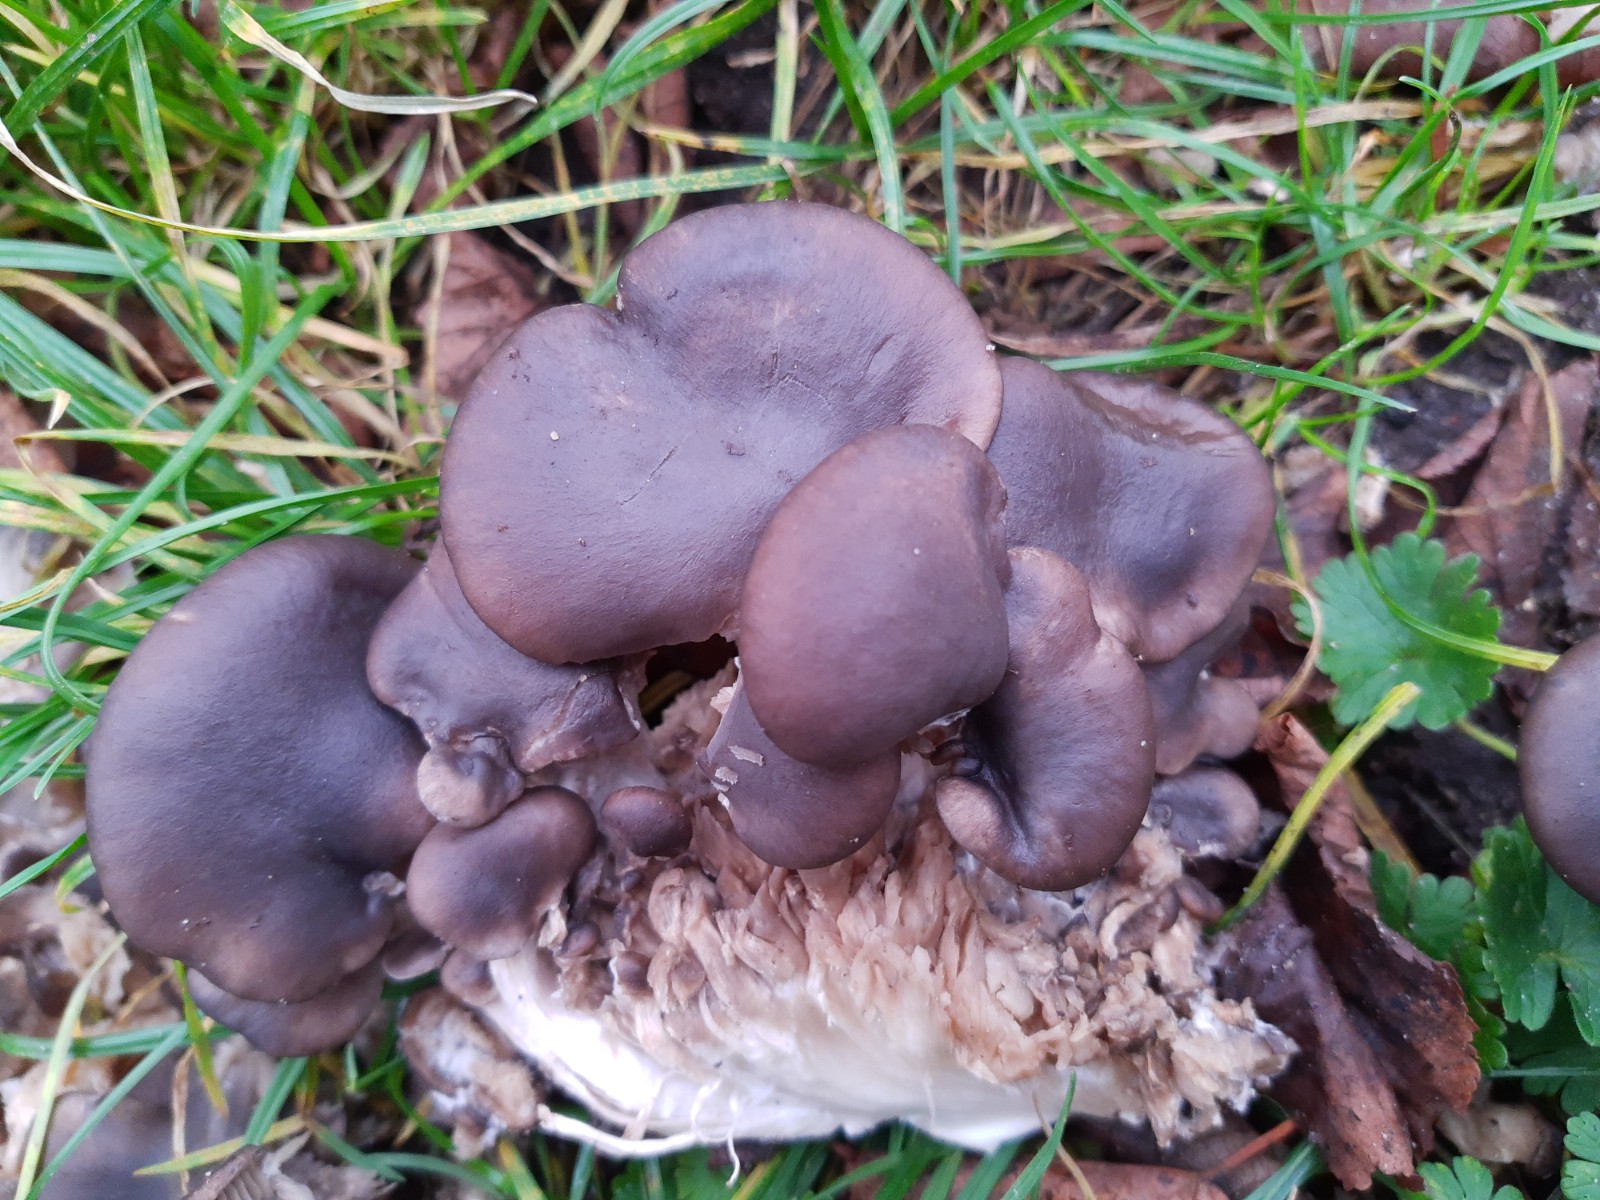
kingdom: Fungi
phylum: Basidiomycota
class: Agaricomycetes
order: Agaricales
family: Pleurotaceae
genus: Pleurotus
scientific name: Pleurotus ostreatus
